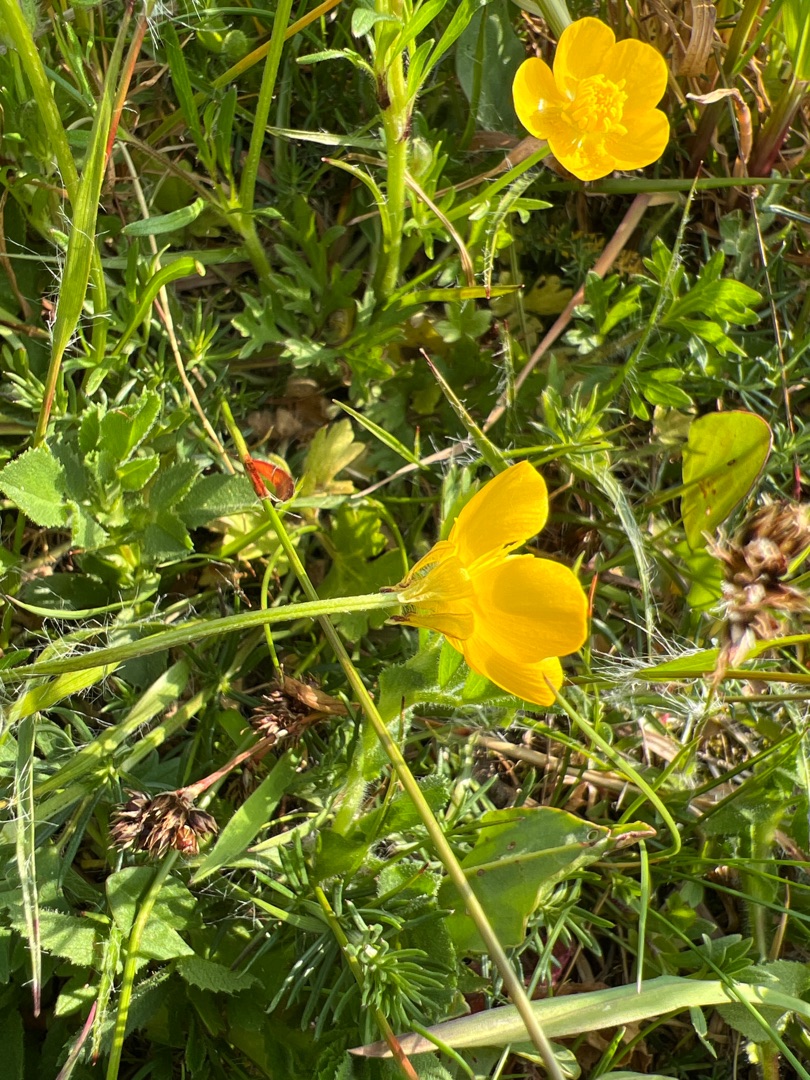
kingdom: Plantae
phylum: Tracheophyta
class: Magnoliopsida
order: Ranunculales
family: Ranunculaceae
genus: Ranunculus
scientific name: Ranunculus bulbosus
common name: Knold-ranunkel
